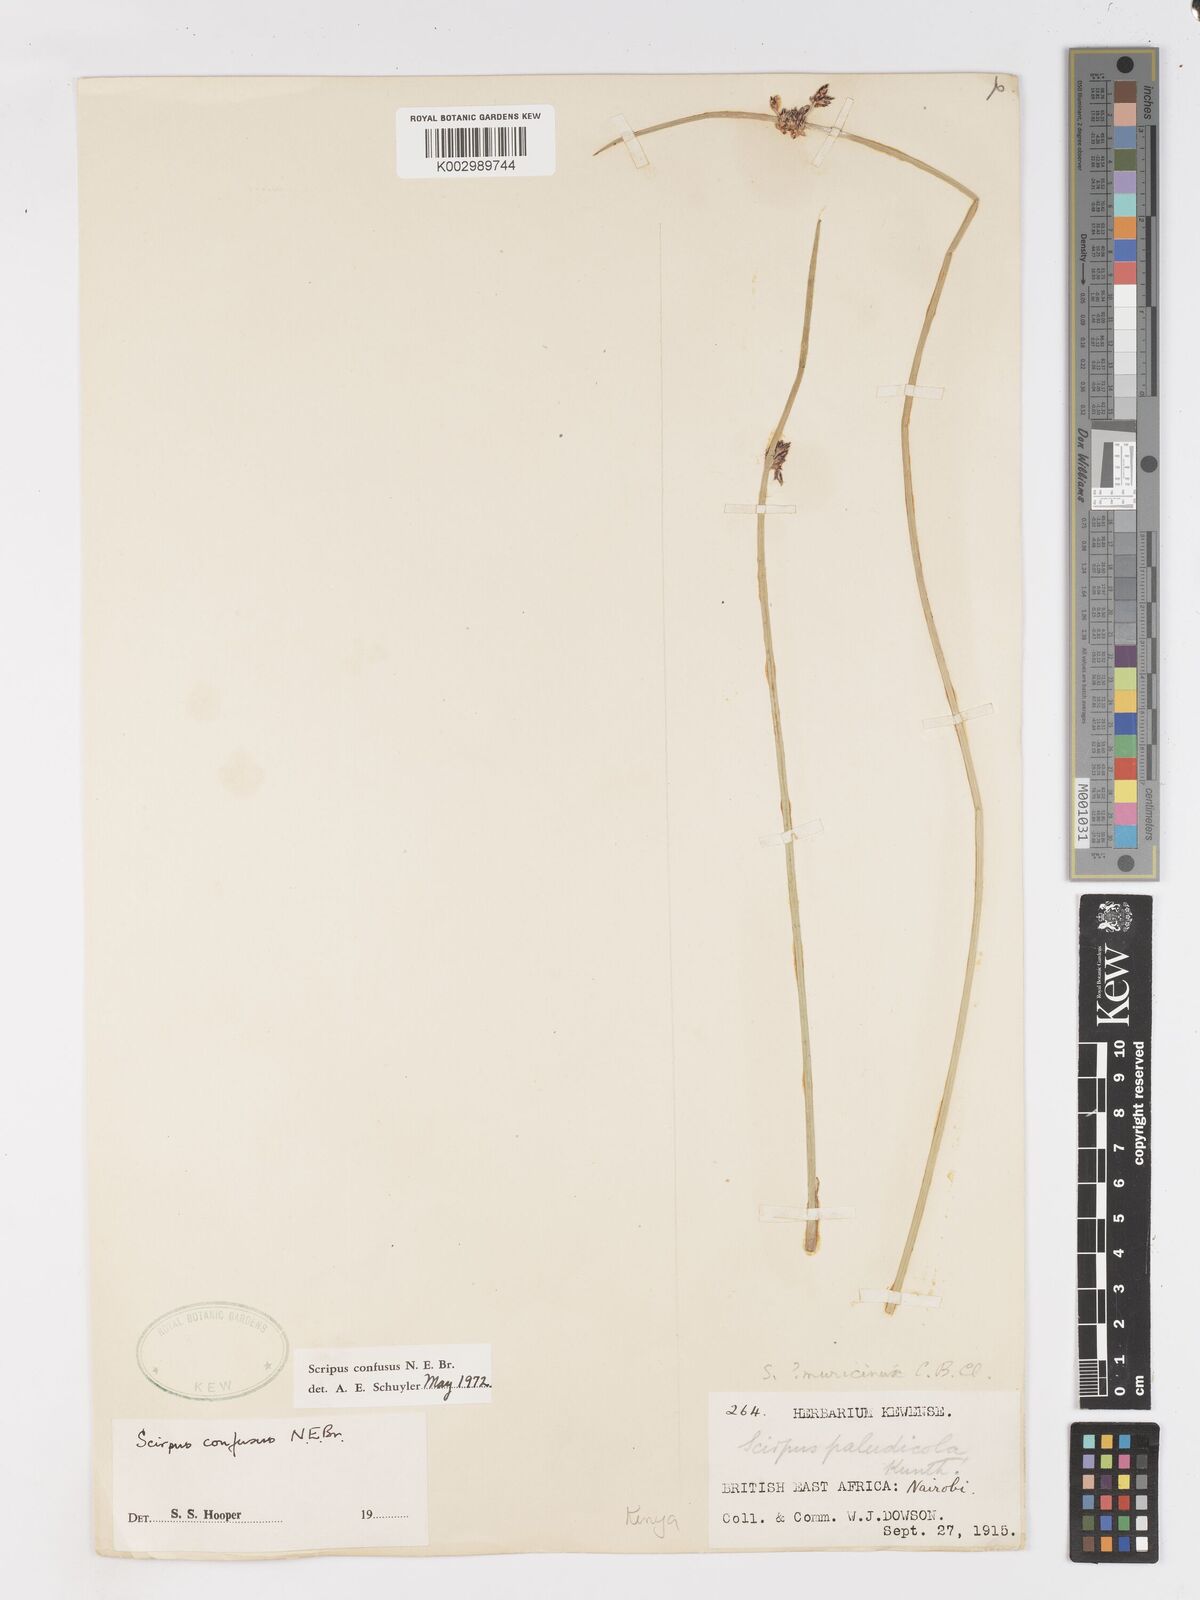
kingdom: Plantae
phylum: Tracheophyta
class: Liliopsida
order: Poales
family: Cyperaceae
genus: Schoenoplectiella
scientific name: Schoenoplectiella confusa
